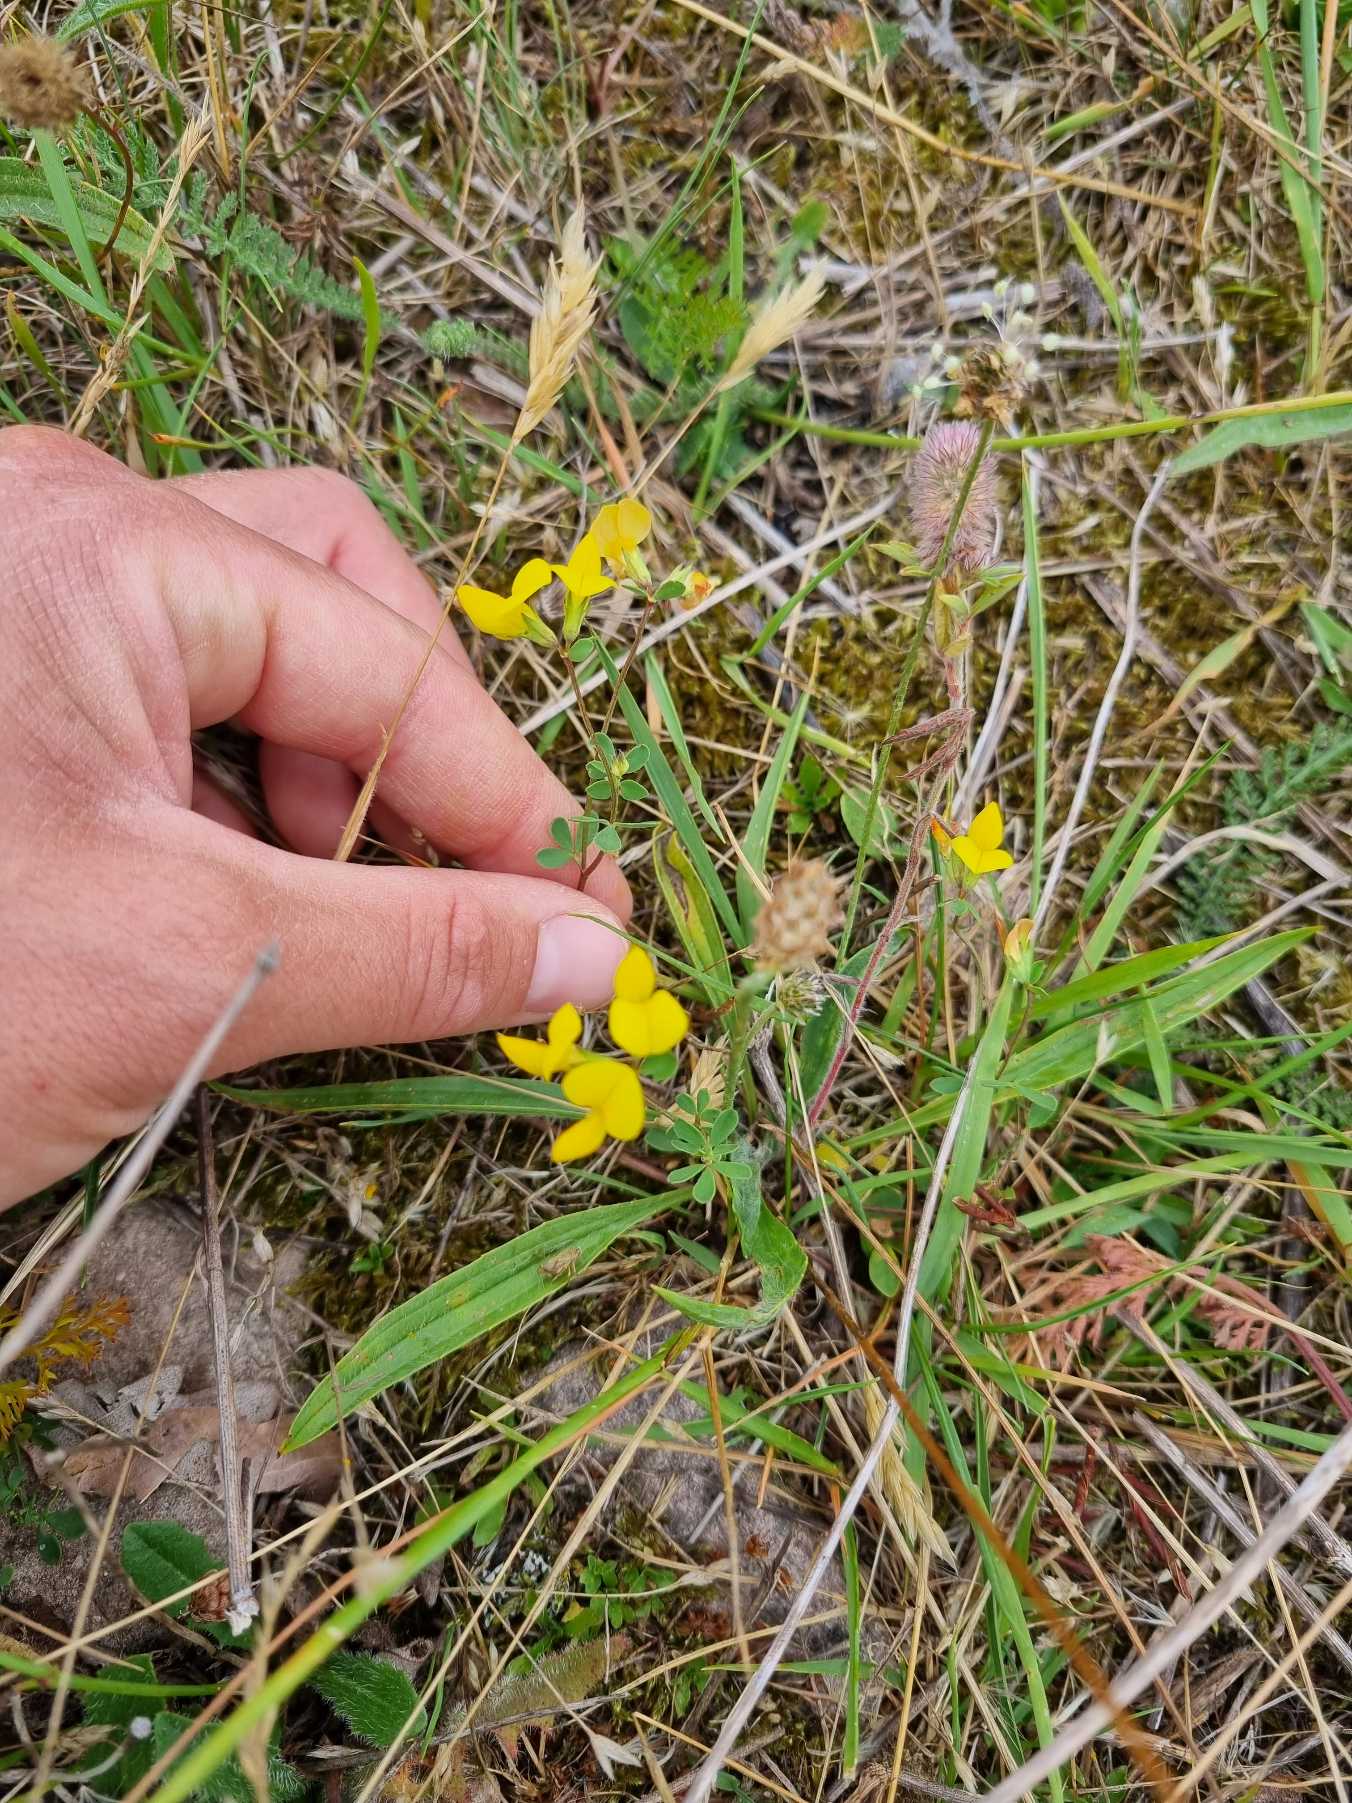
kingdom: Plantae
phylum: Tracheophyta
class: Magnoliopsida
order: Fabales
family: Fabaceae
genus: Lotus
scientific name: Lotus corniculatus
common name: Almindelig kællingetand
